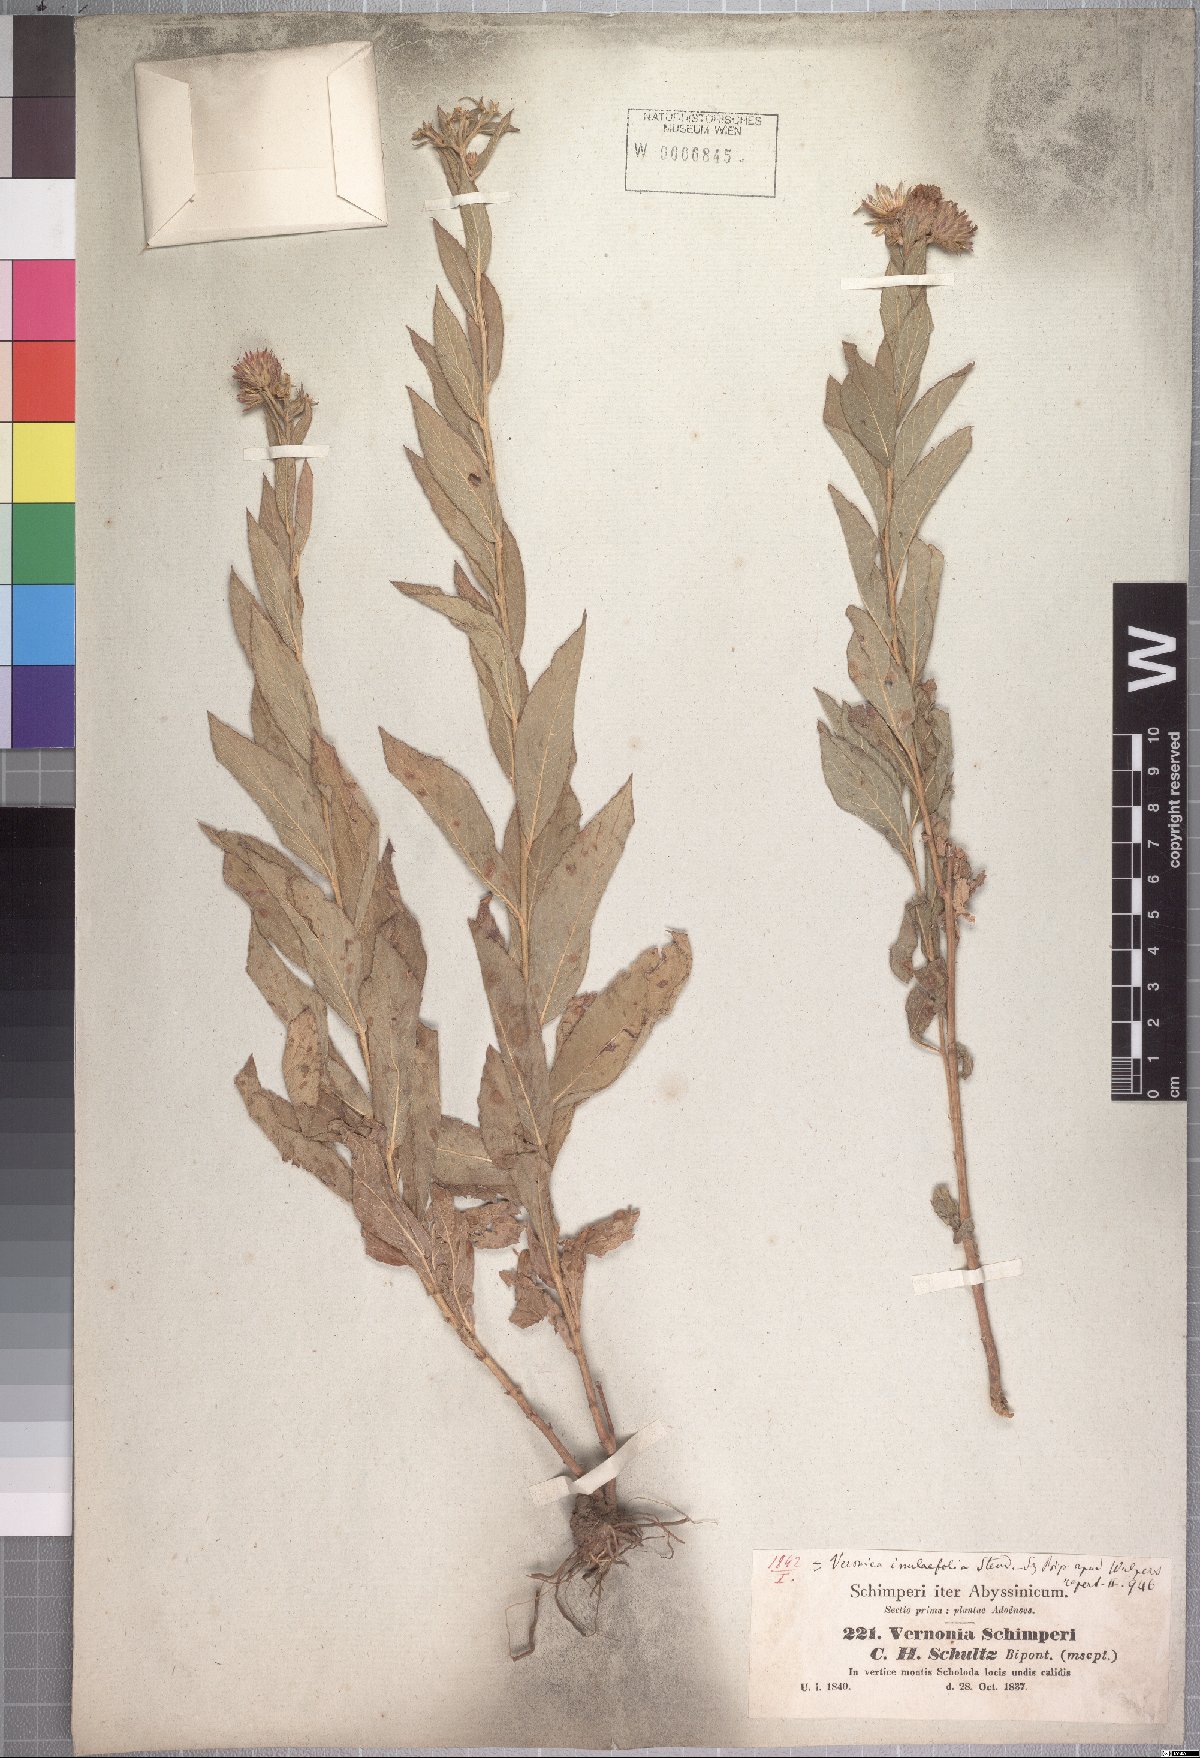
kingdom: Plantae
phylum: Tracheophyta
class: Magnoliopsida
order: Asterales
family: Asteraceae
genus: Nothovernonia
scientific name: Nothovernonia purpurea
